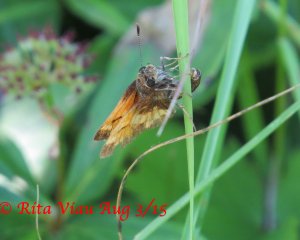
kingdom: Animalia
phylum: Arthropoda
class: Insecta
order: Lepidoptera
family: Hesperiidae
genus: Lon
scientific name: Lon hobomok
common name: Hobomok Skipper
